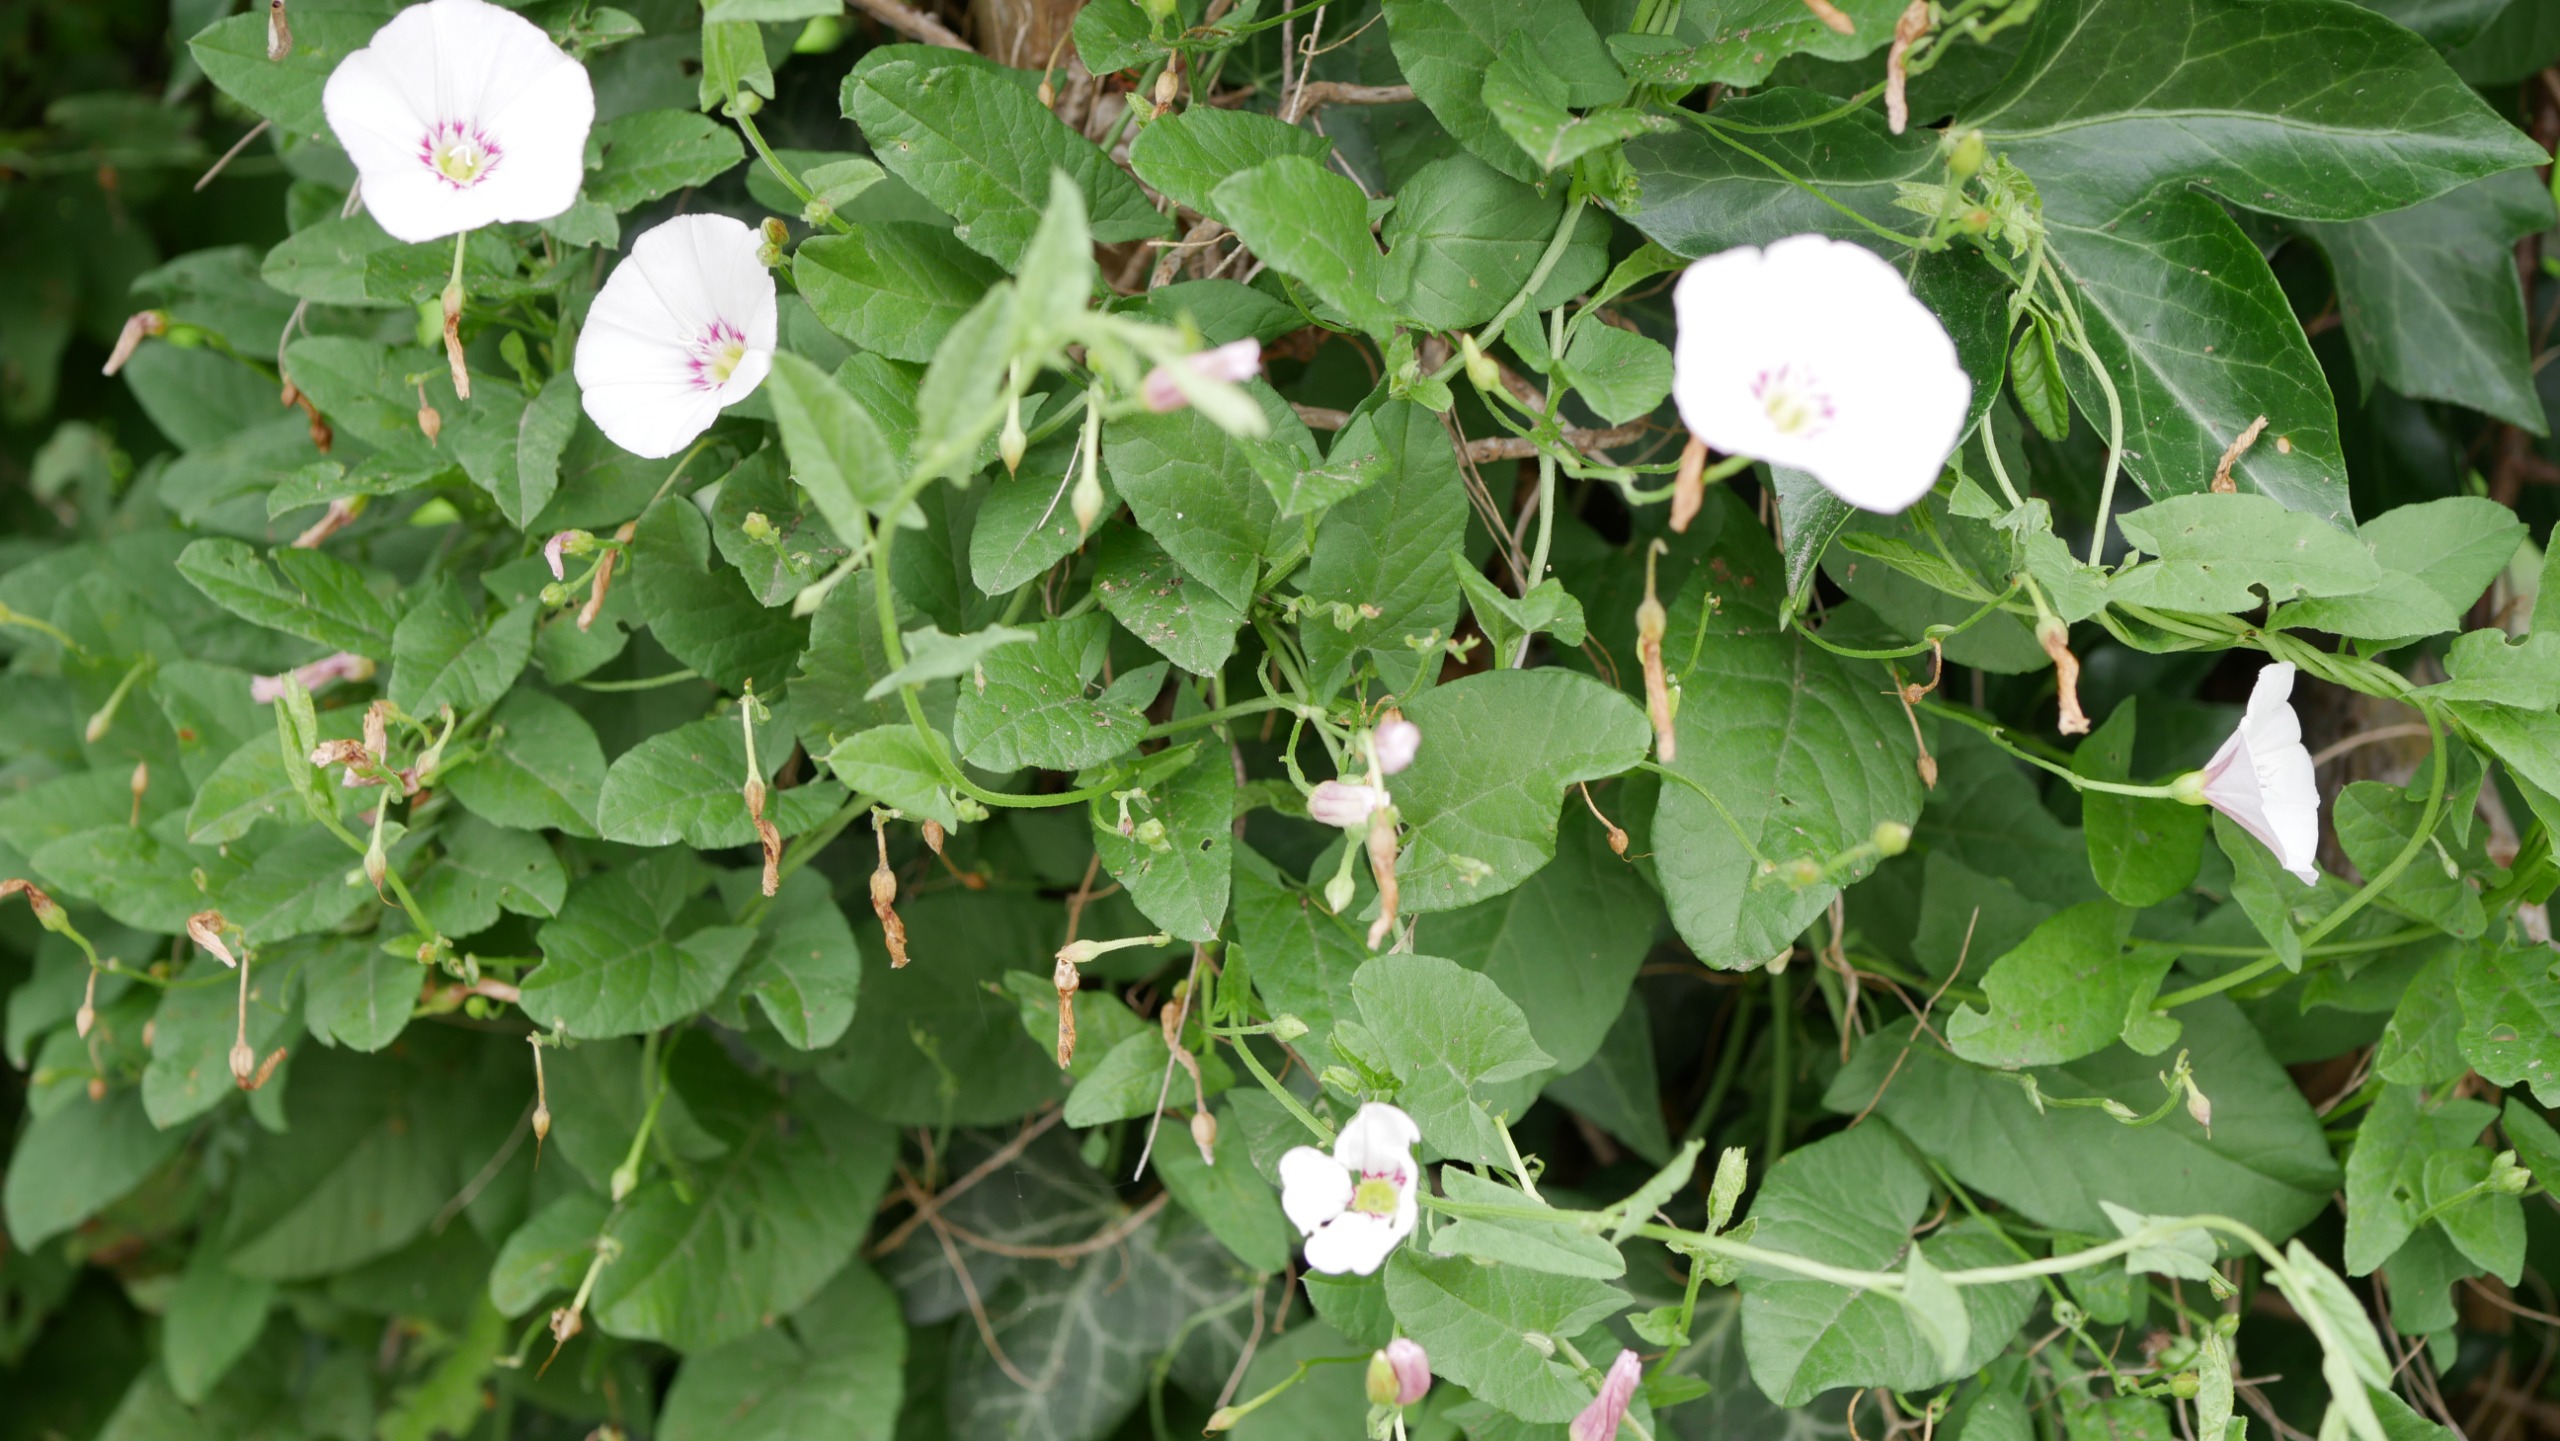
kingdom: Plantae
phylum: Tracheophyta
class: Magnoliopsida
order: Solanales
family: Convolvulaceae
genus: Convolvulus
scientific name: Convolvulus arvensis
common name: Ager-snerle
